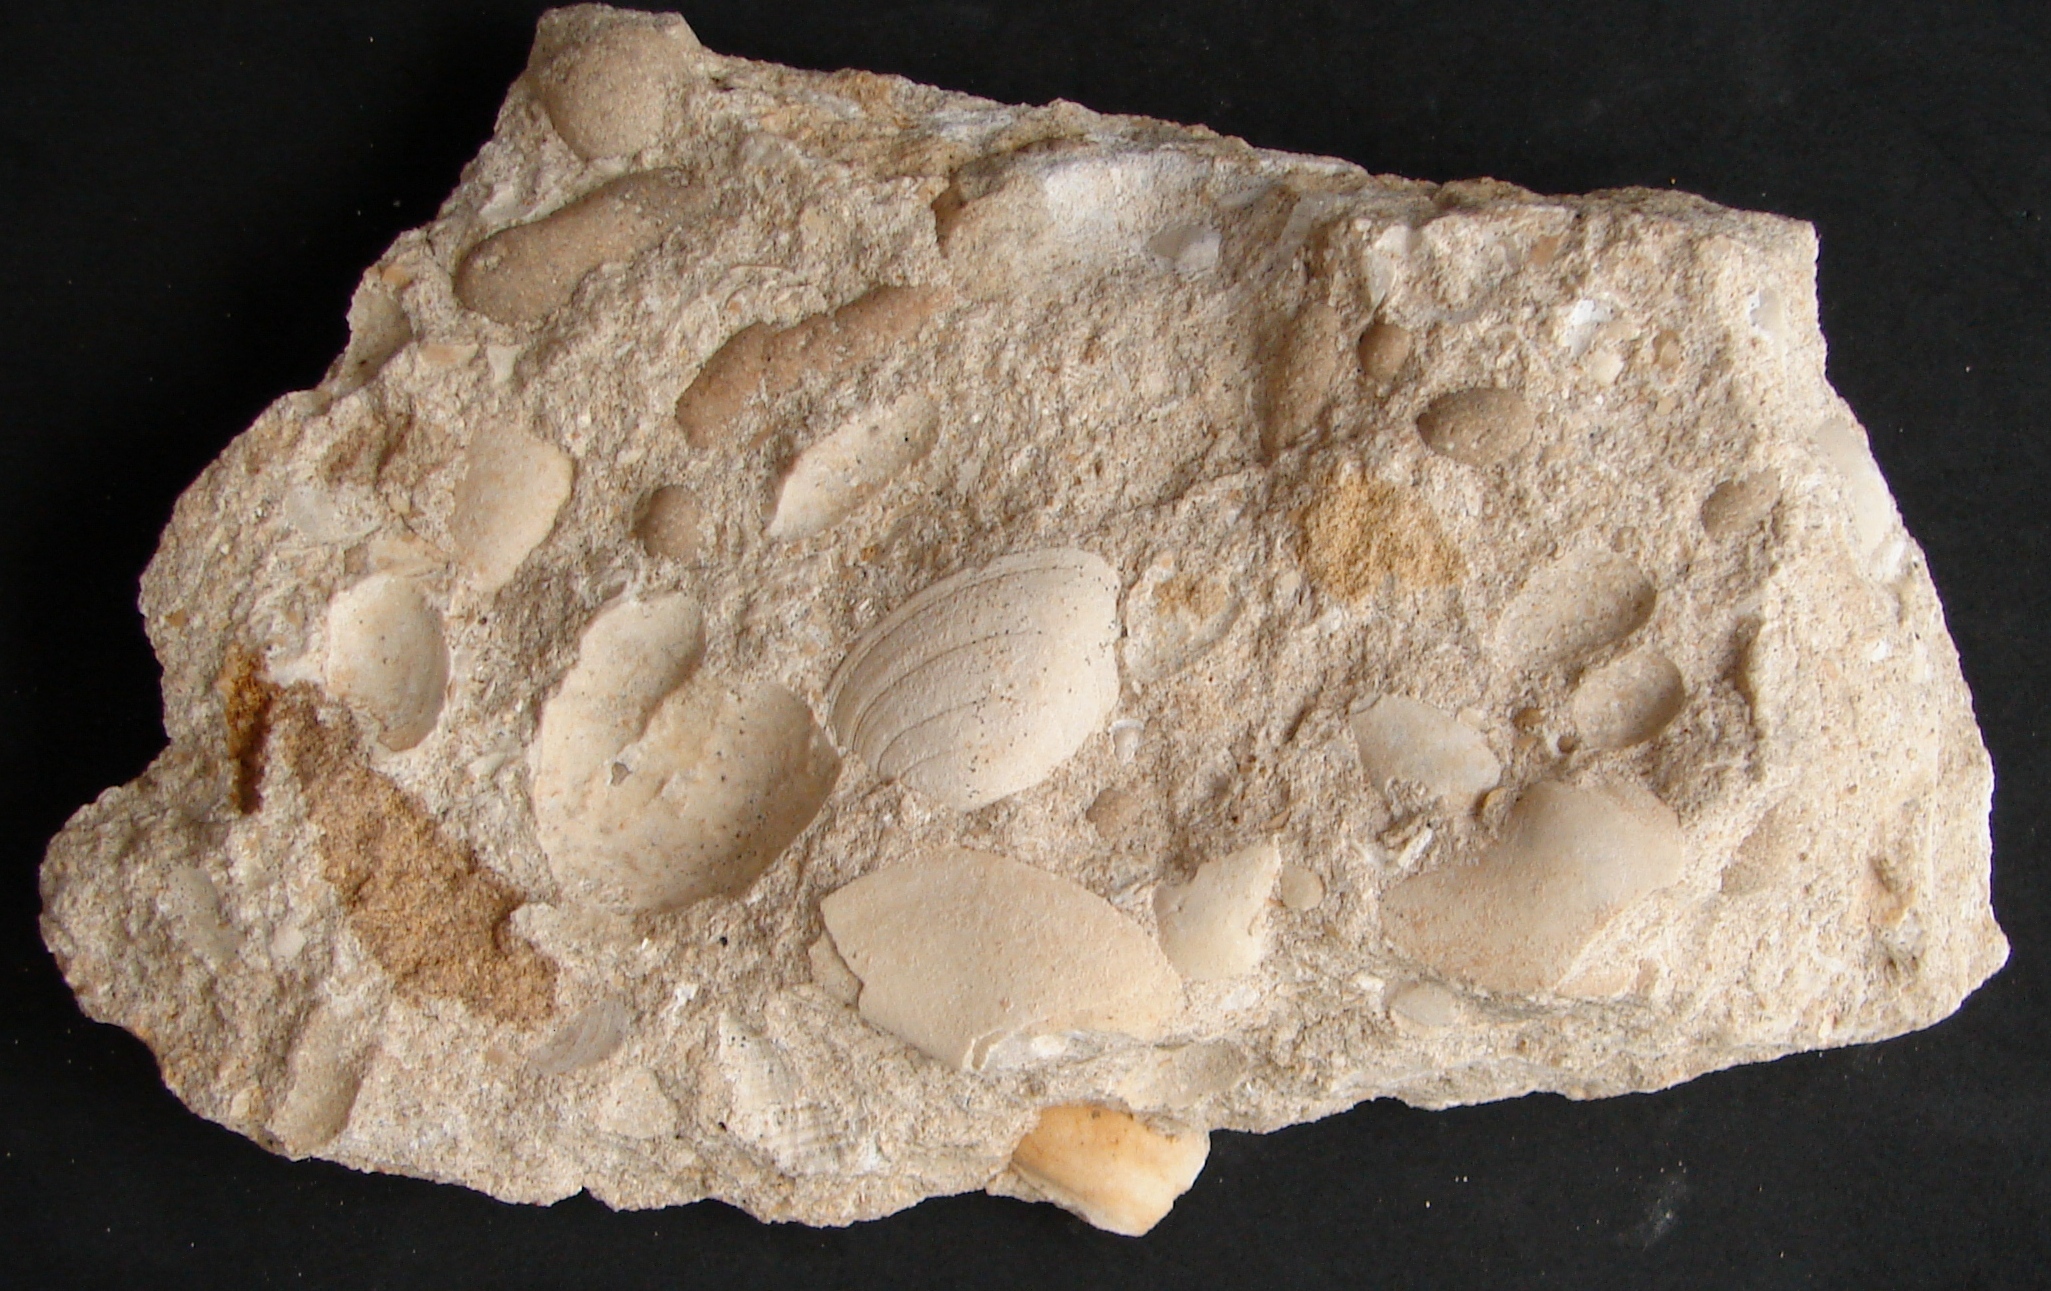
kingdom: Animalia
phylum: Mollusca
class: Bivalvia
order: Carditida
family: Cardiniidae
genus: Cardinia
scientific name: Cardinia
